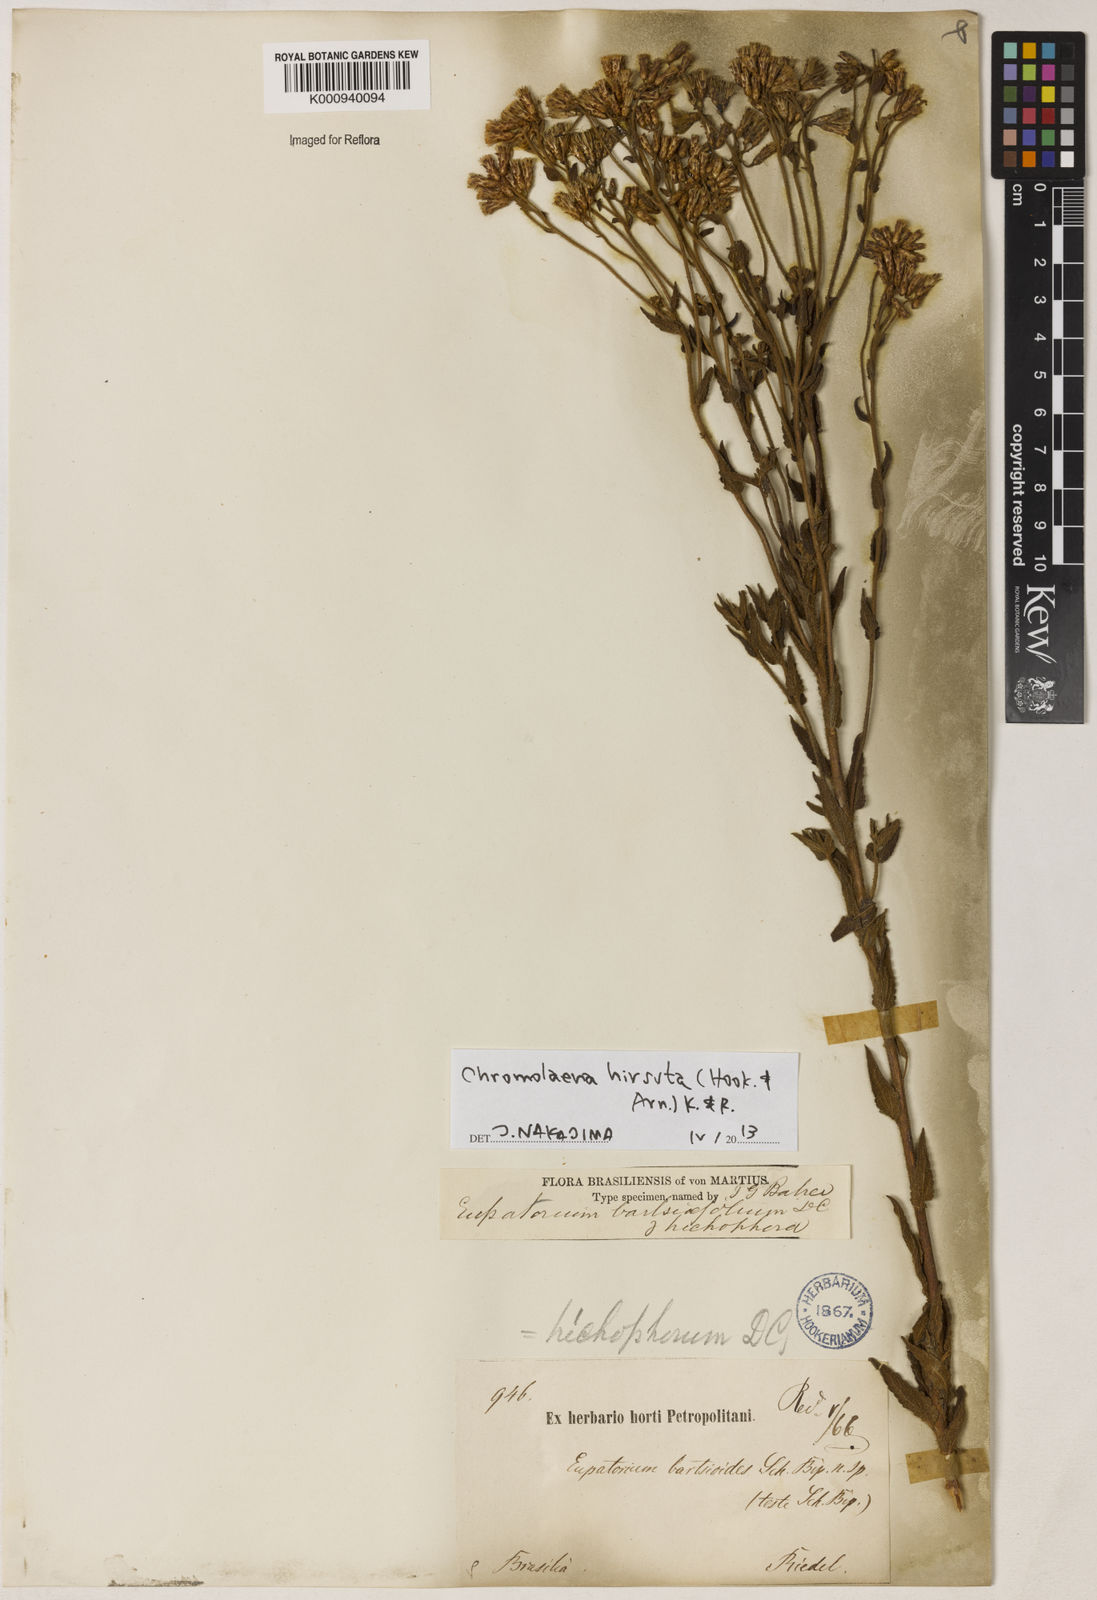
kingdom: Plantae
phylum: Tracheophyta
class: Magnoliopsida
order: Asterales
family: Asteraceae
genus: Chromolaena
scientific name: Chromolaena hirsuta
